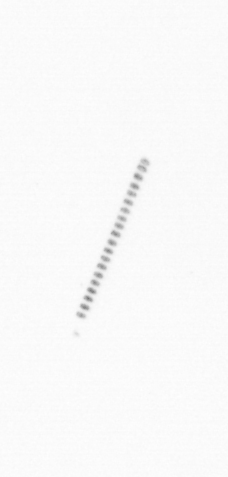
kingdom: Chromista
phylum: Ochrophyta
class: Bacillariophyceae
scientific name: Bacillariophyceae
